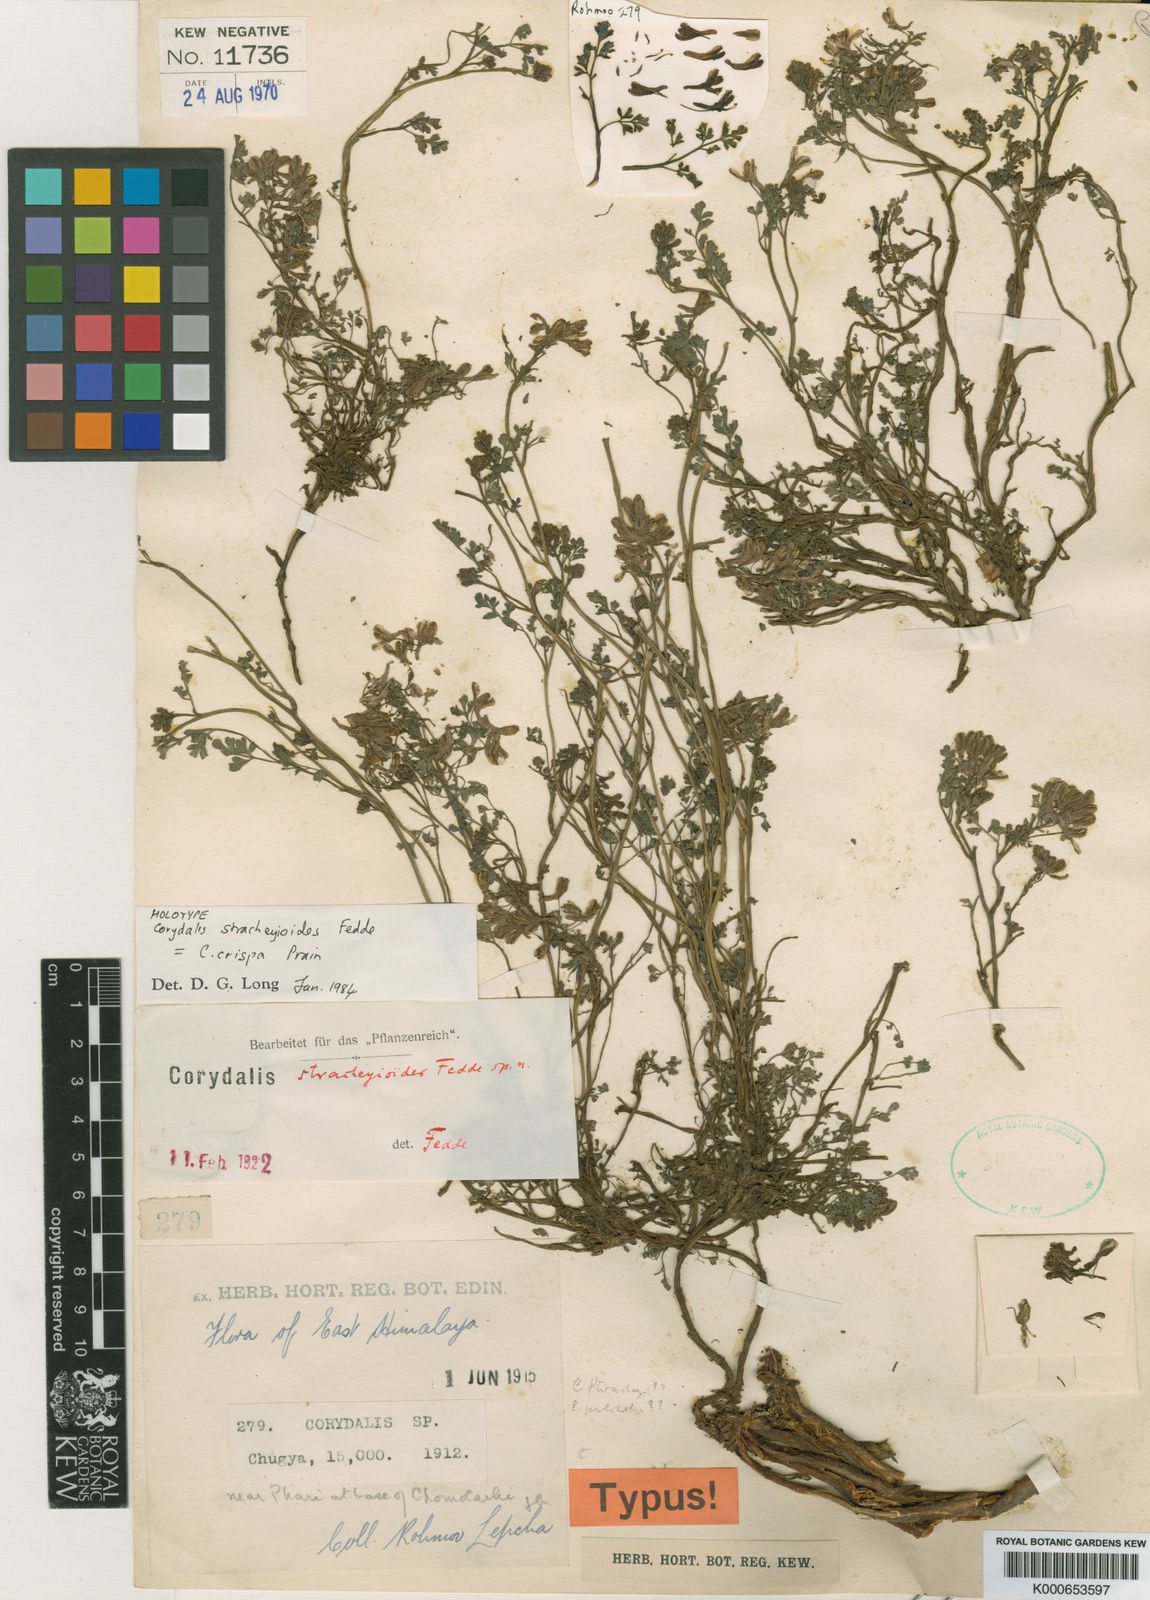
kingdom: Plantae
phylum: Tracheophyta
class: Magnoliopsida
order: Ranunculales
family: Papaveraceae
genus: Corydalis
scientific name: Corydalis crispa
